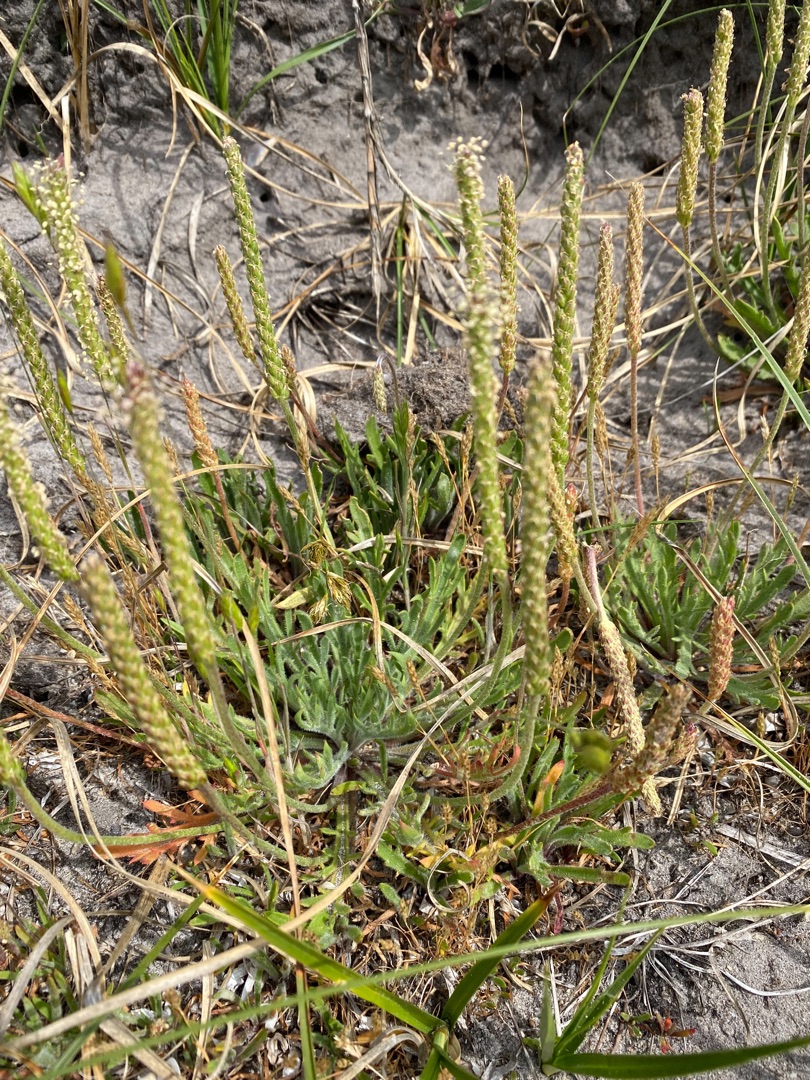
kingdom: Plantae
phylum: Tracheophyta
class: Magnoliopsida
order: Lamiales
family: Plantaginaceae
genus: Plantago
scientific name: Plantago coronopus
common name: Fliget vejbred
